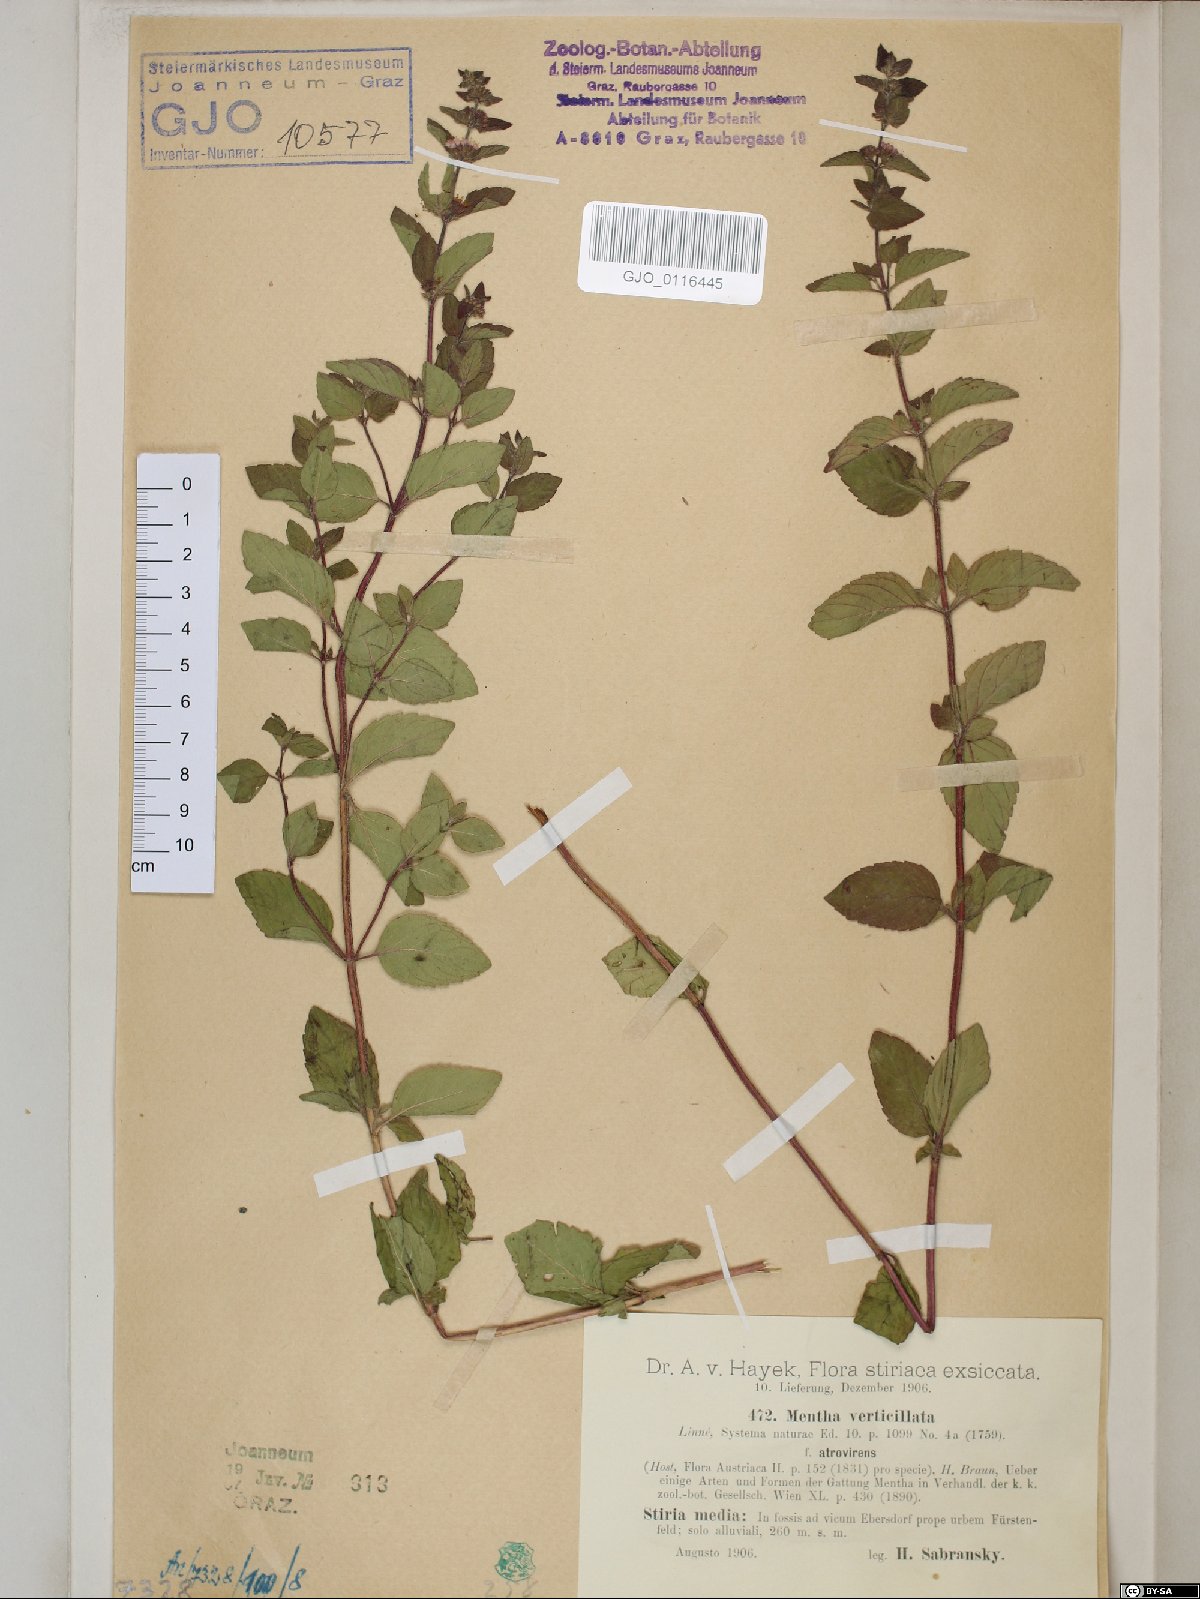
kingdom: Plantae
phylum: Tracheophyta
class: Magnoliopsida
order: Lamiales
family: Lamiaceae
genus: Mentha
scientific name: Mentha verticillata
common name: Mint
